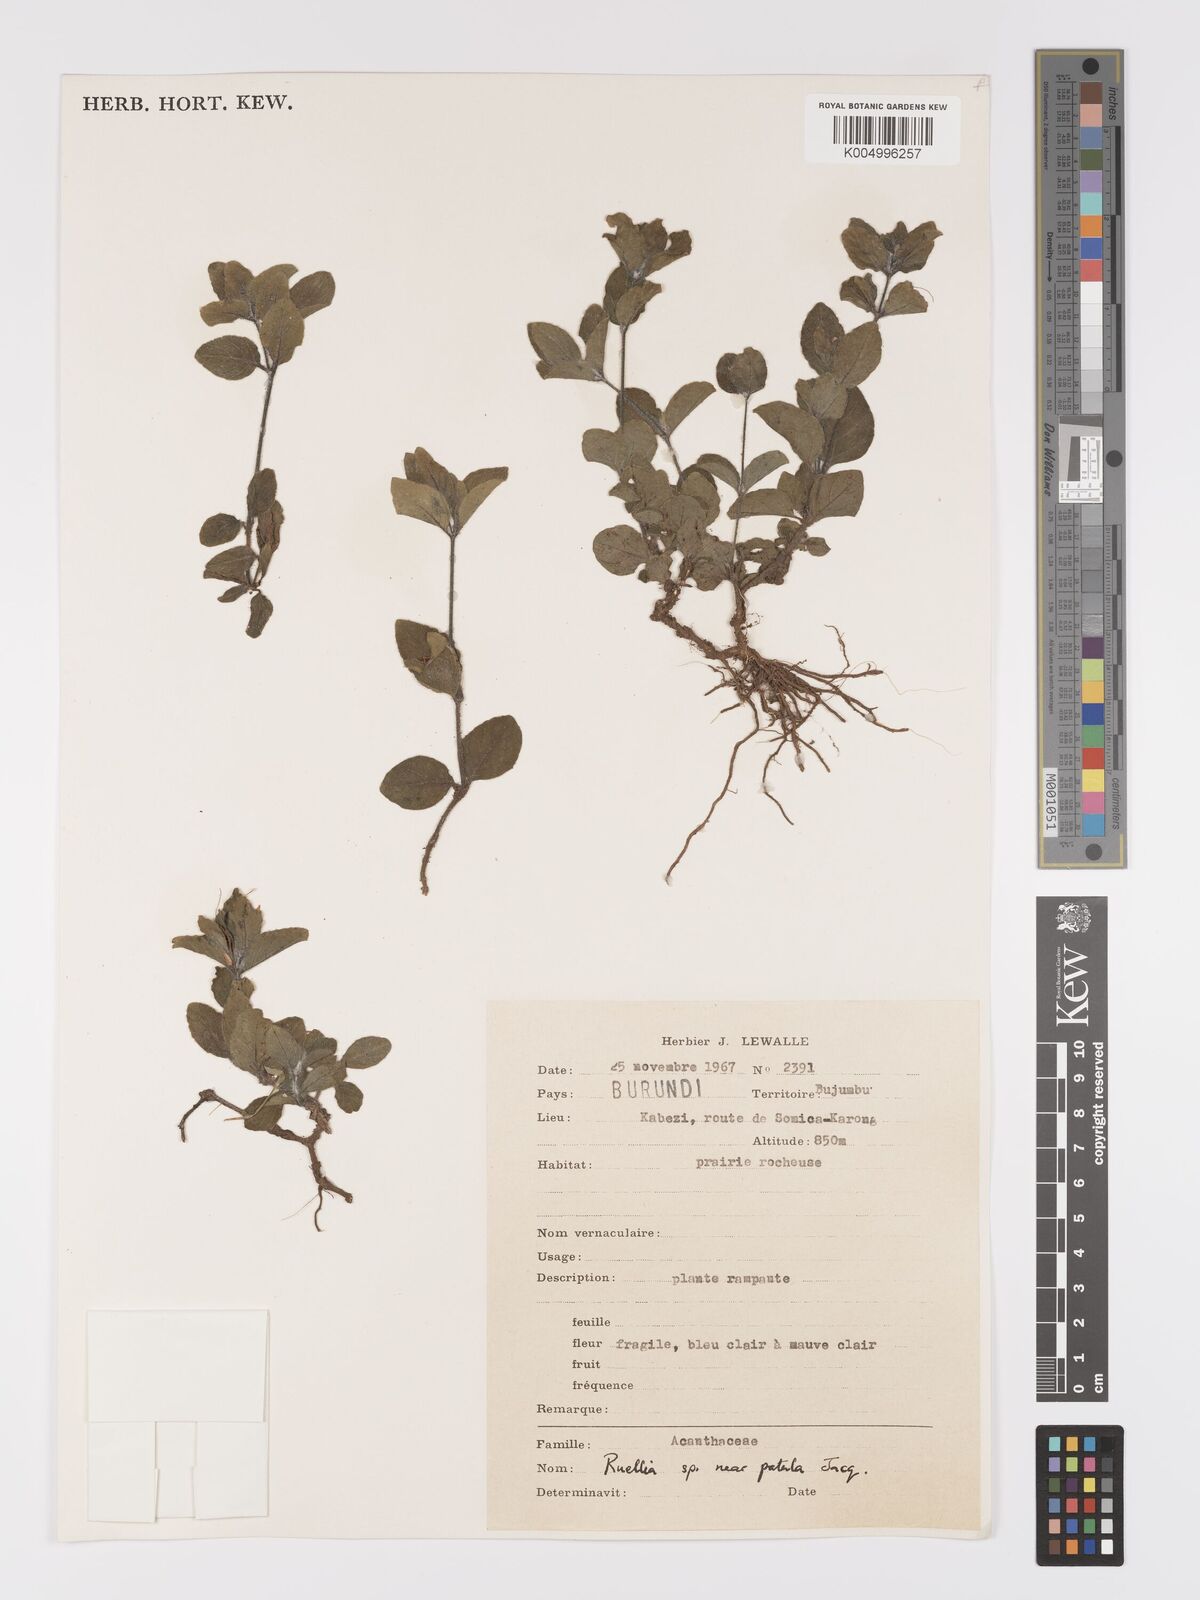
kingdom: Plantae
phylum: Tracheophyta
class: Magnoliopsida
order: Lamiales
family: Acanthaceae
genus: Ruellia
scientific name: Ruellia patula
